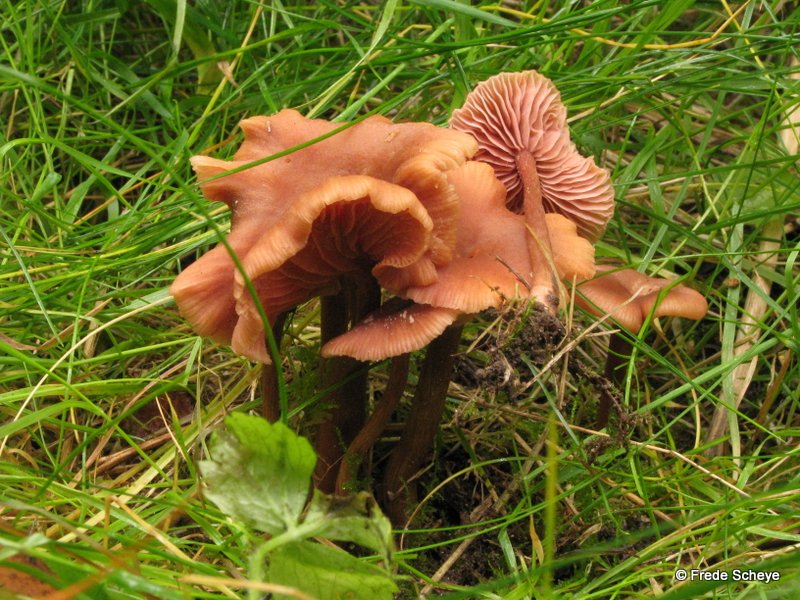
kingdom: Fungi
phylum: Basidiomycota
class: Agaricomycetes
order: Agaricales
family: Hydnangiaceae
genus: Laccaria
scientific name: Laccaria laccata
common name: rød ametysthat
